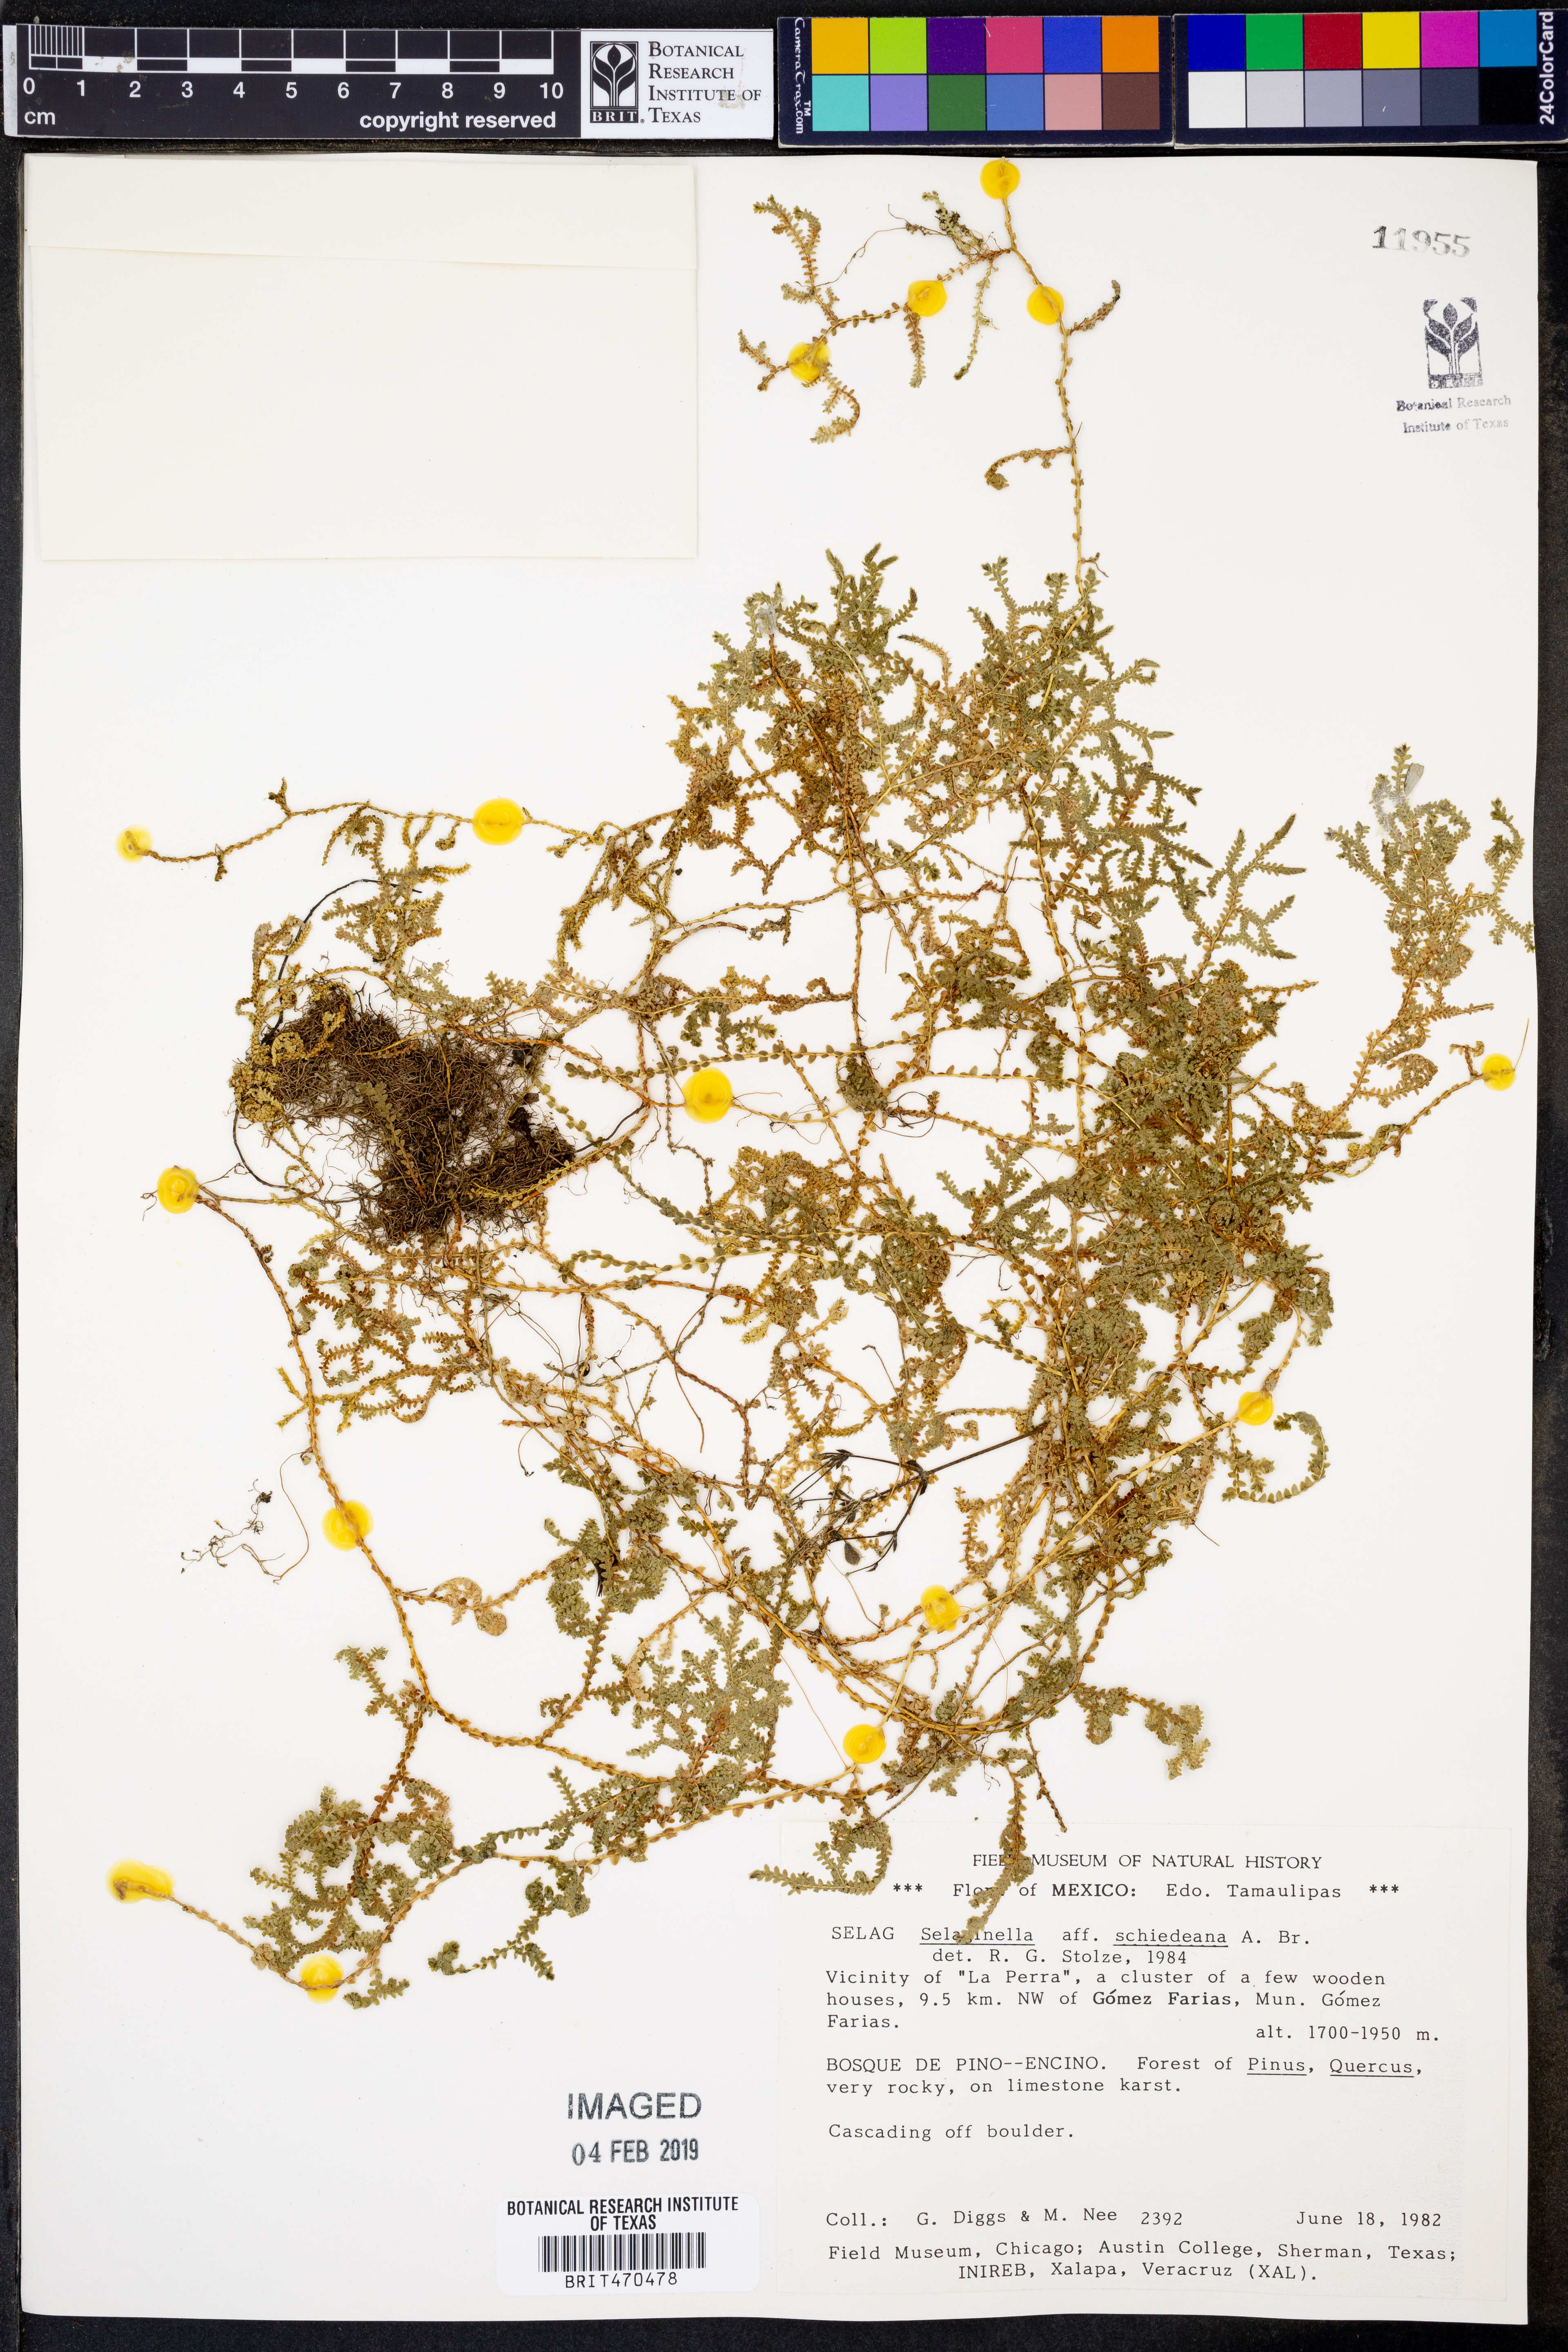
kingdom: Plantae
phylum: Tracheophyta
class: Lycopodiopsida
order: Selaginellales
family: Selaginellaceae
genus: Selaginella
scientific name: Selaginella schiedeana
